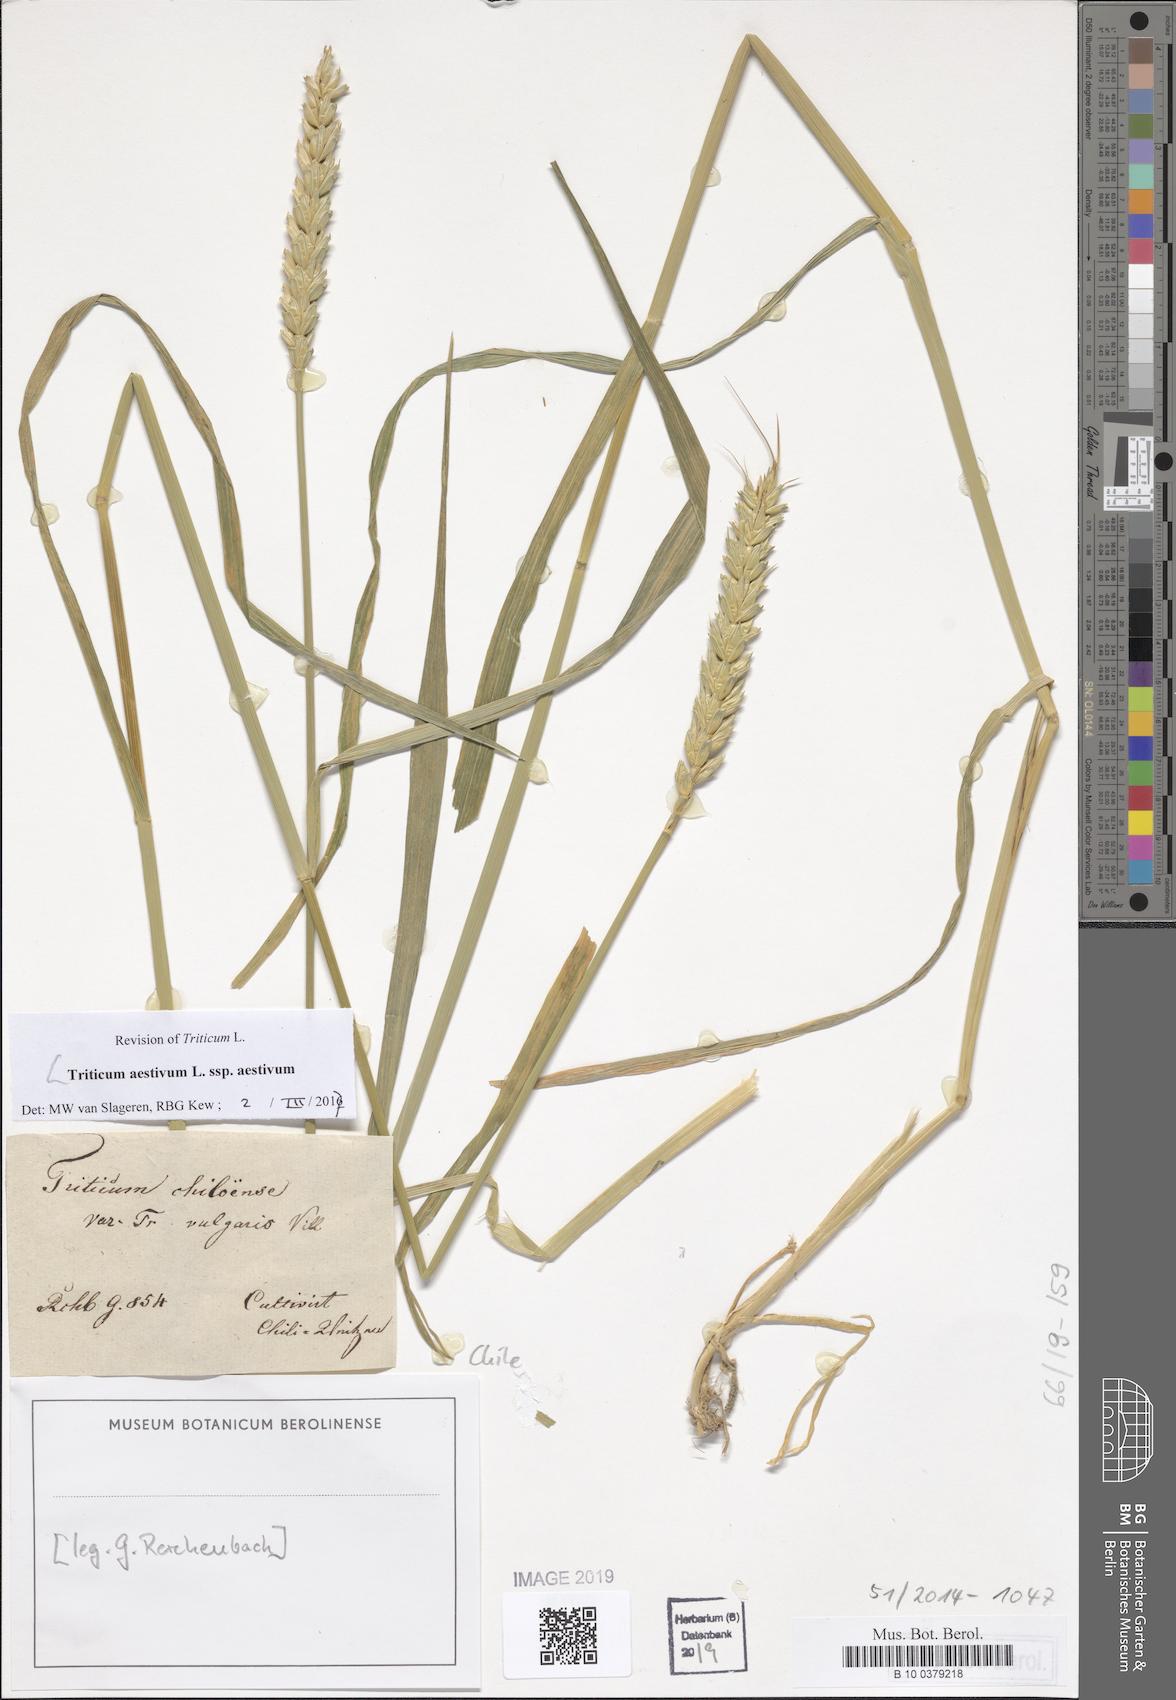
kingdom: Plantae
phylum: Tracheophyta
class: Liliopsida
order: Poales
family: Poaceae
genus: Triticum
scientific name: Triticum aestivum
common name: Common wheat
